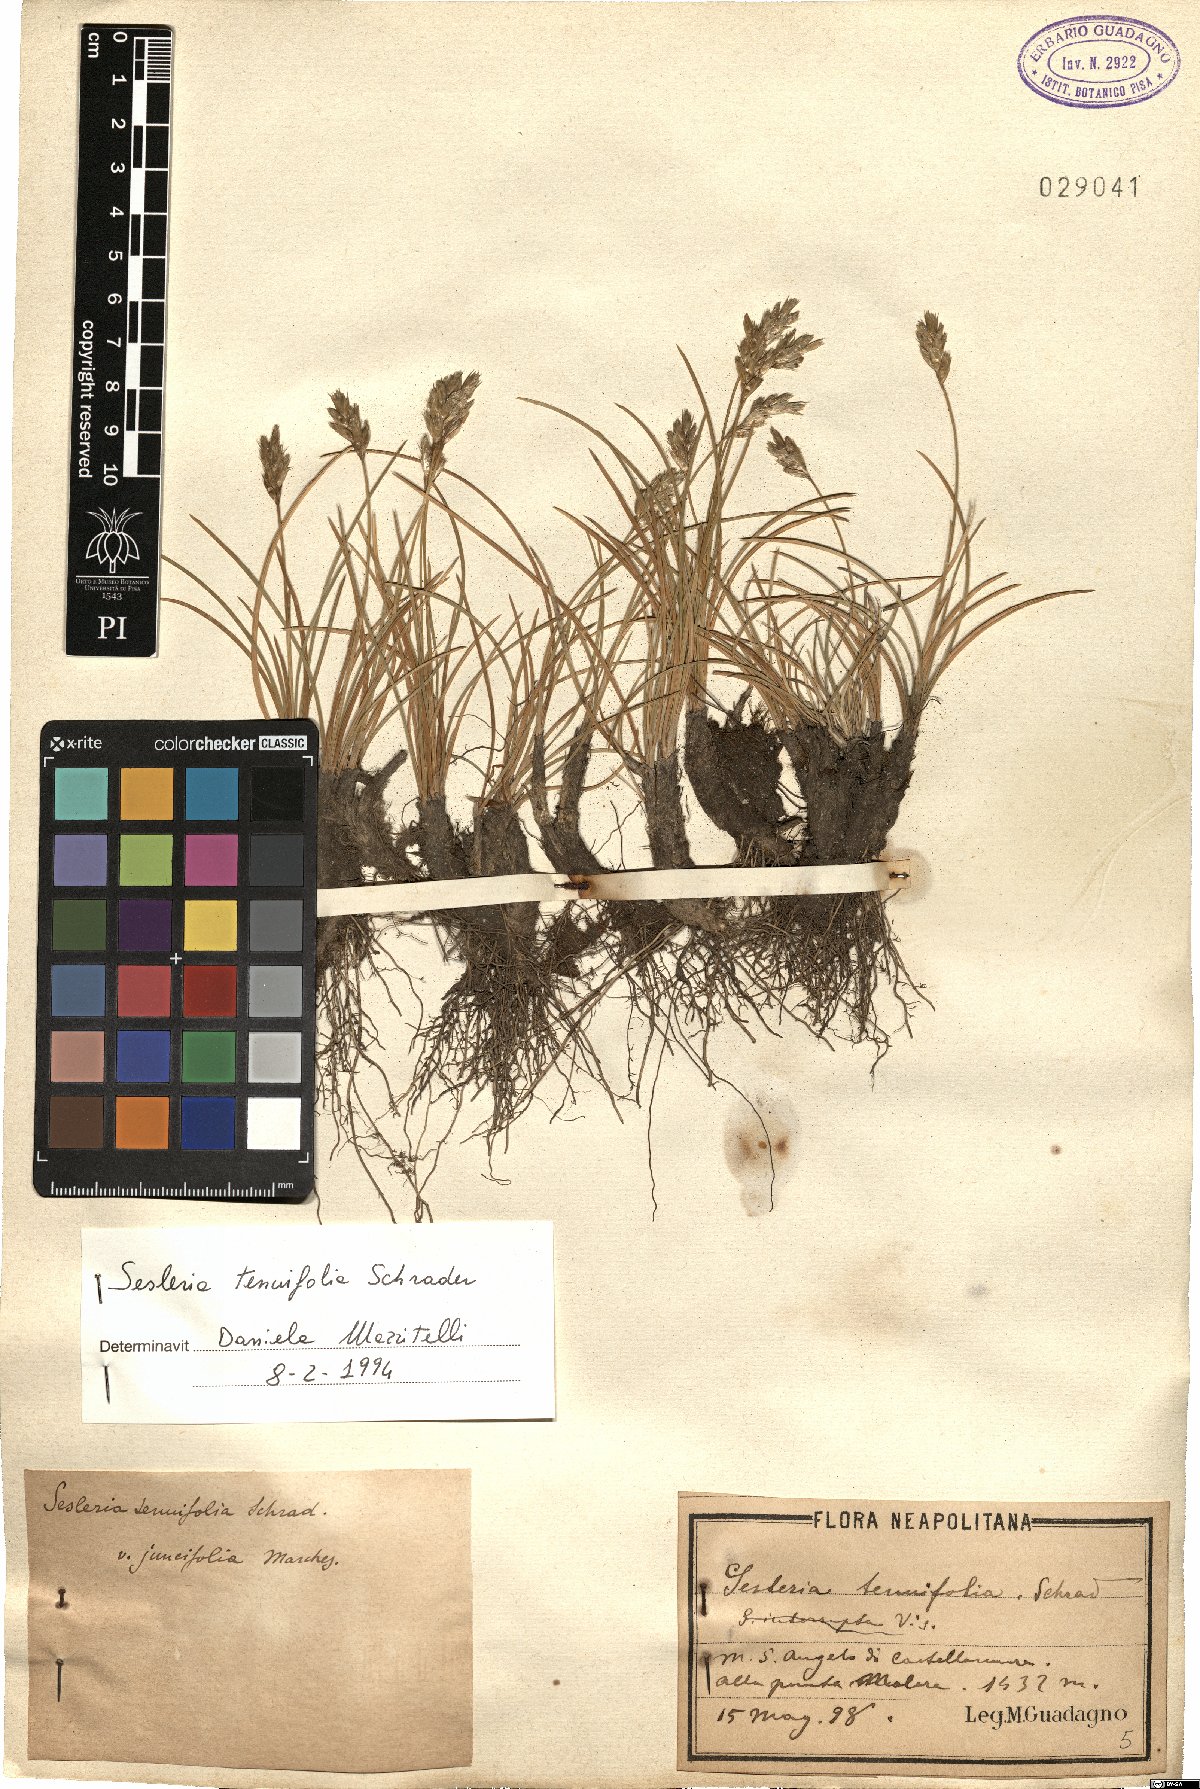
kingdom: Plantae
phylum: Tracheophyta
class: Liliopsida
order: Poales
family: Poaceae
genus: Sesleria
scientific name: Sesleria juncifolia
